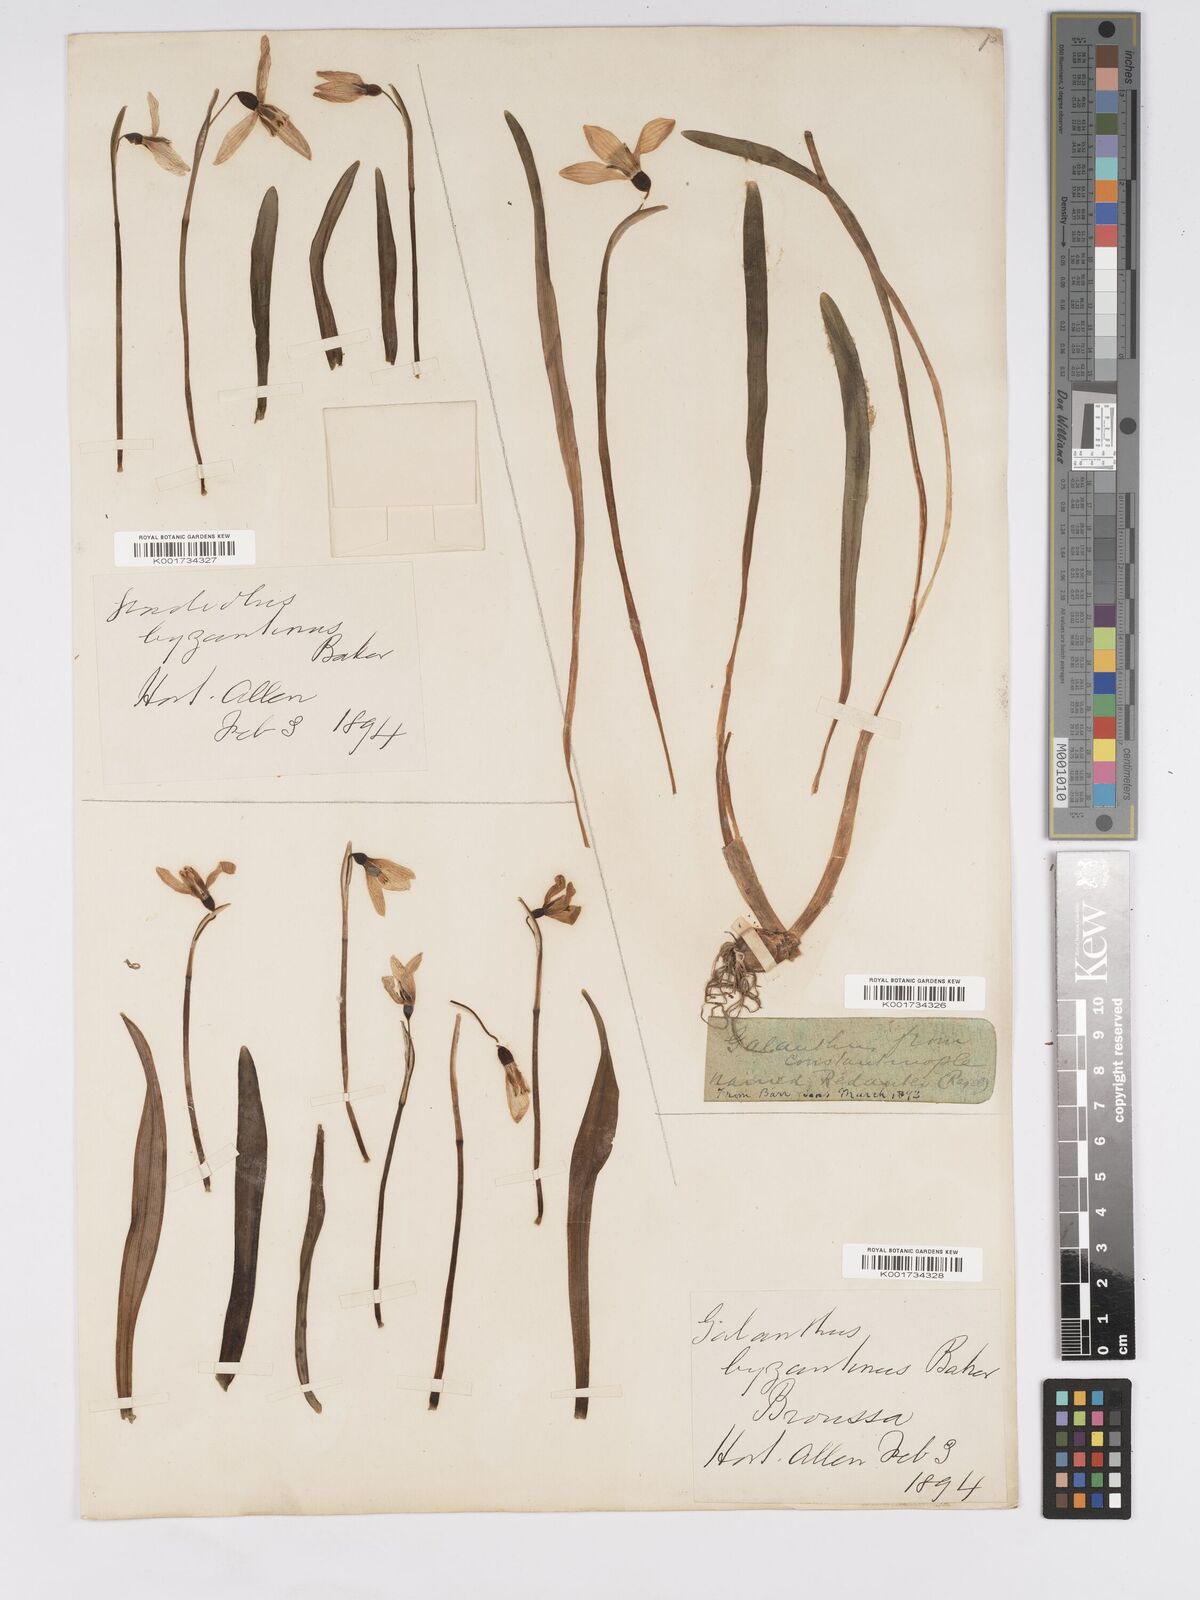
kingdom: Plantae
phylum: Tracheophyta
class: Liliopsida
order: Asparagales
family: Amaryllidaceae
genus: Galanthus
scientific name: Galanthus
